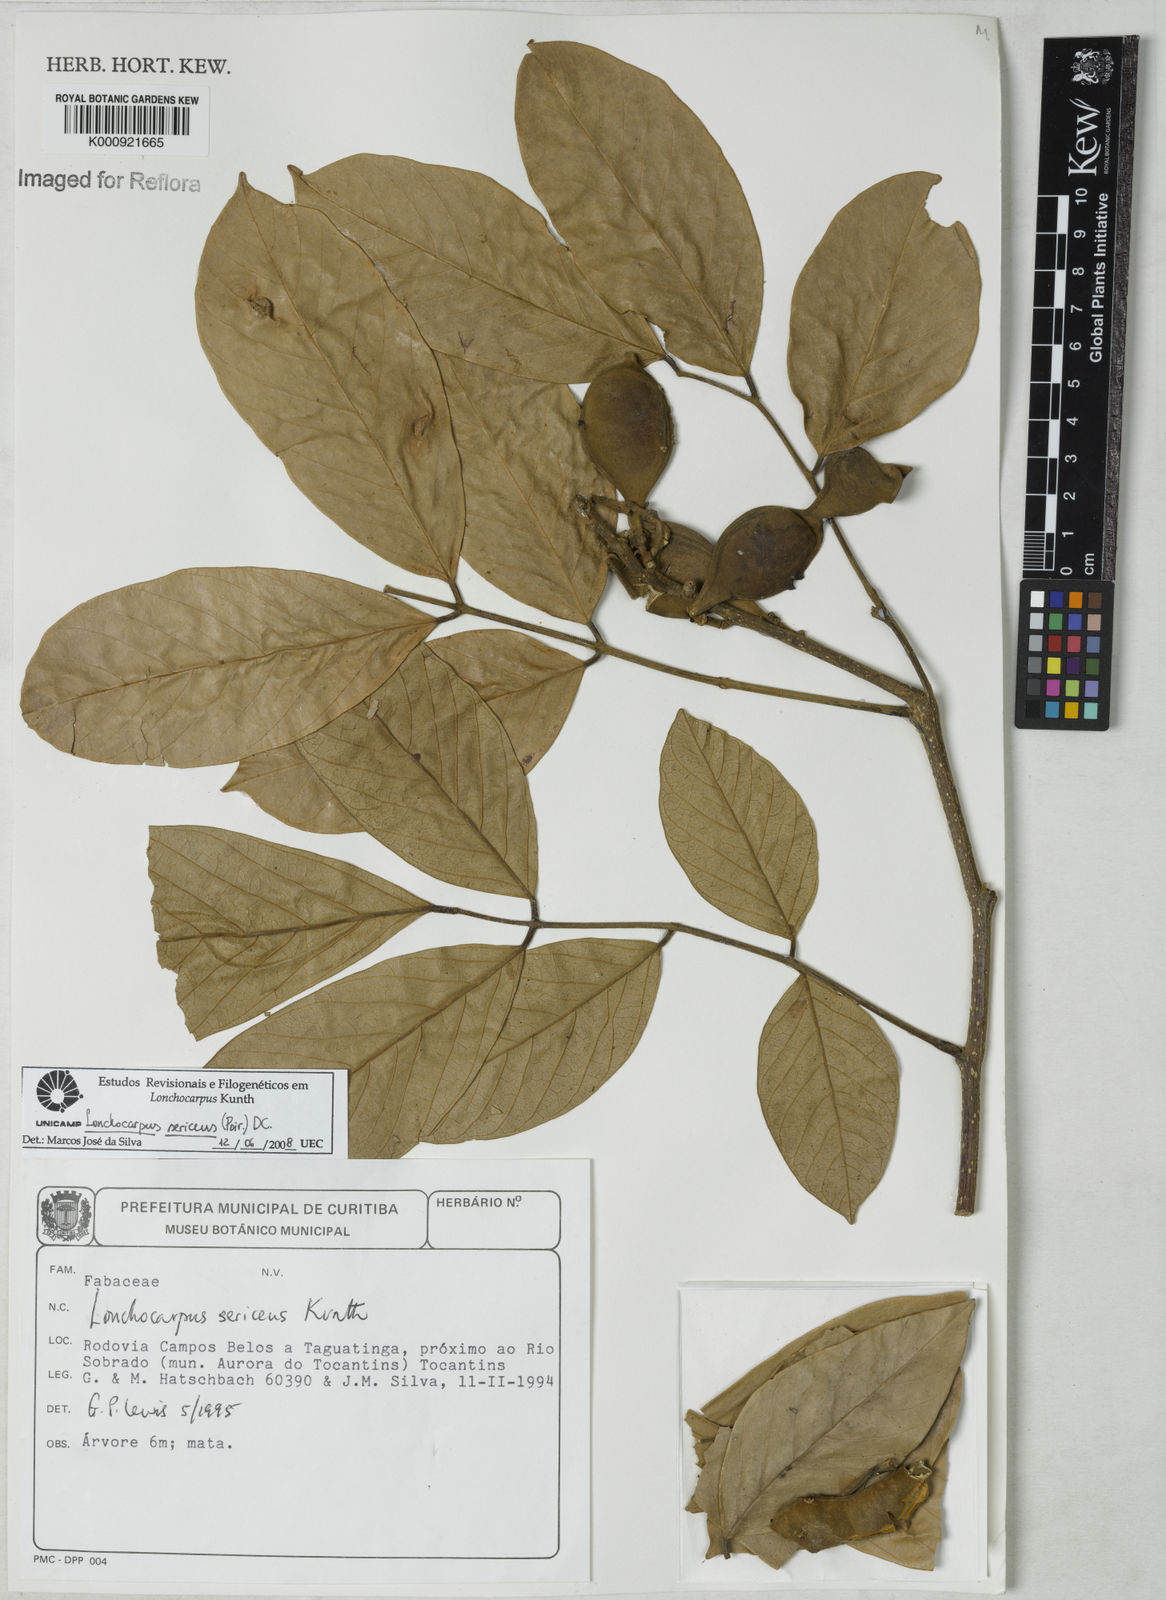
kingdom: Plantae
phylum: Tracheophyta
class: Magnoliopsida
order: Fabales
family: Fabaceae
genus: Lonchocarpus
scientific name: Lonchocarpus
